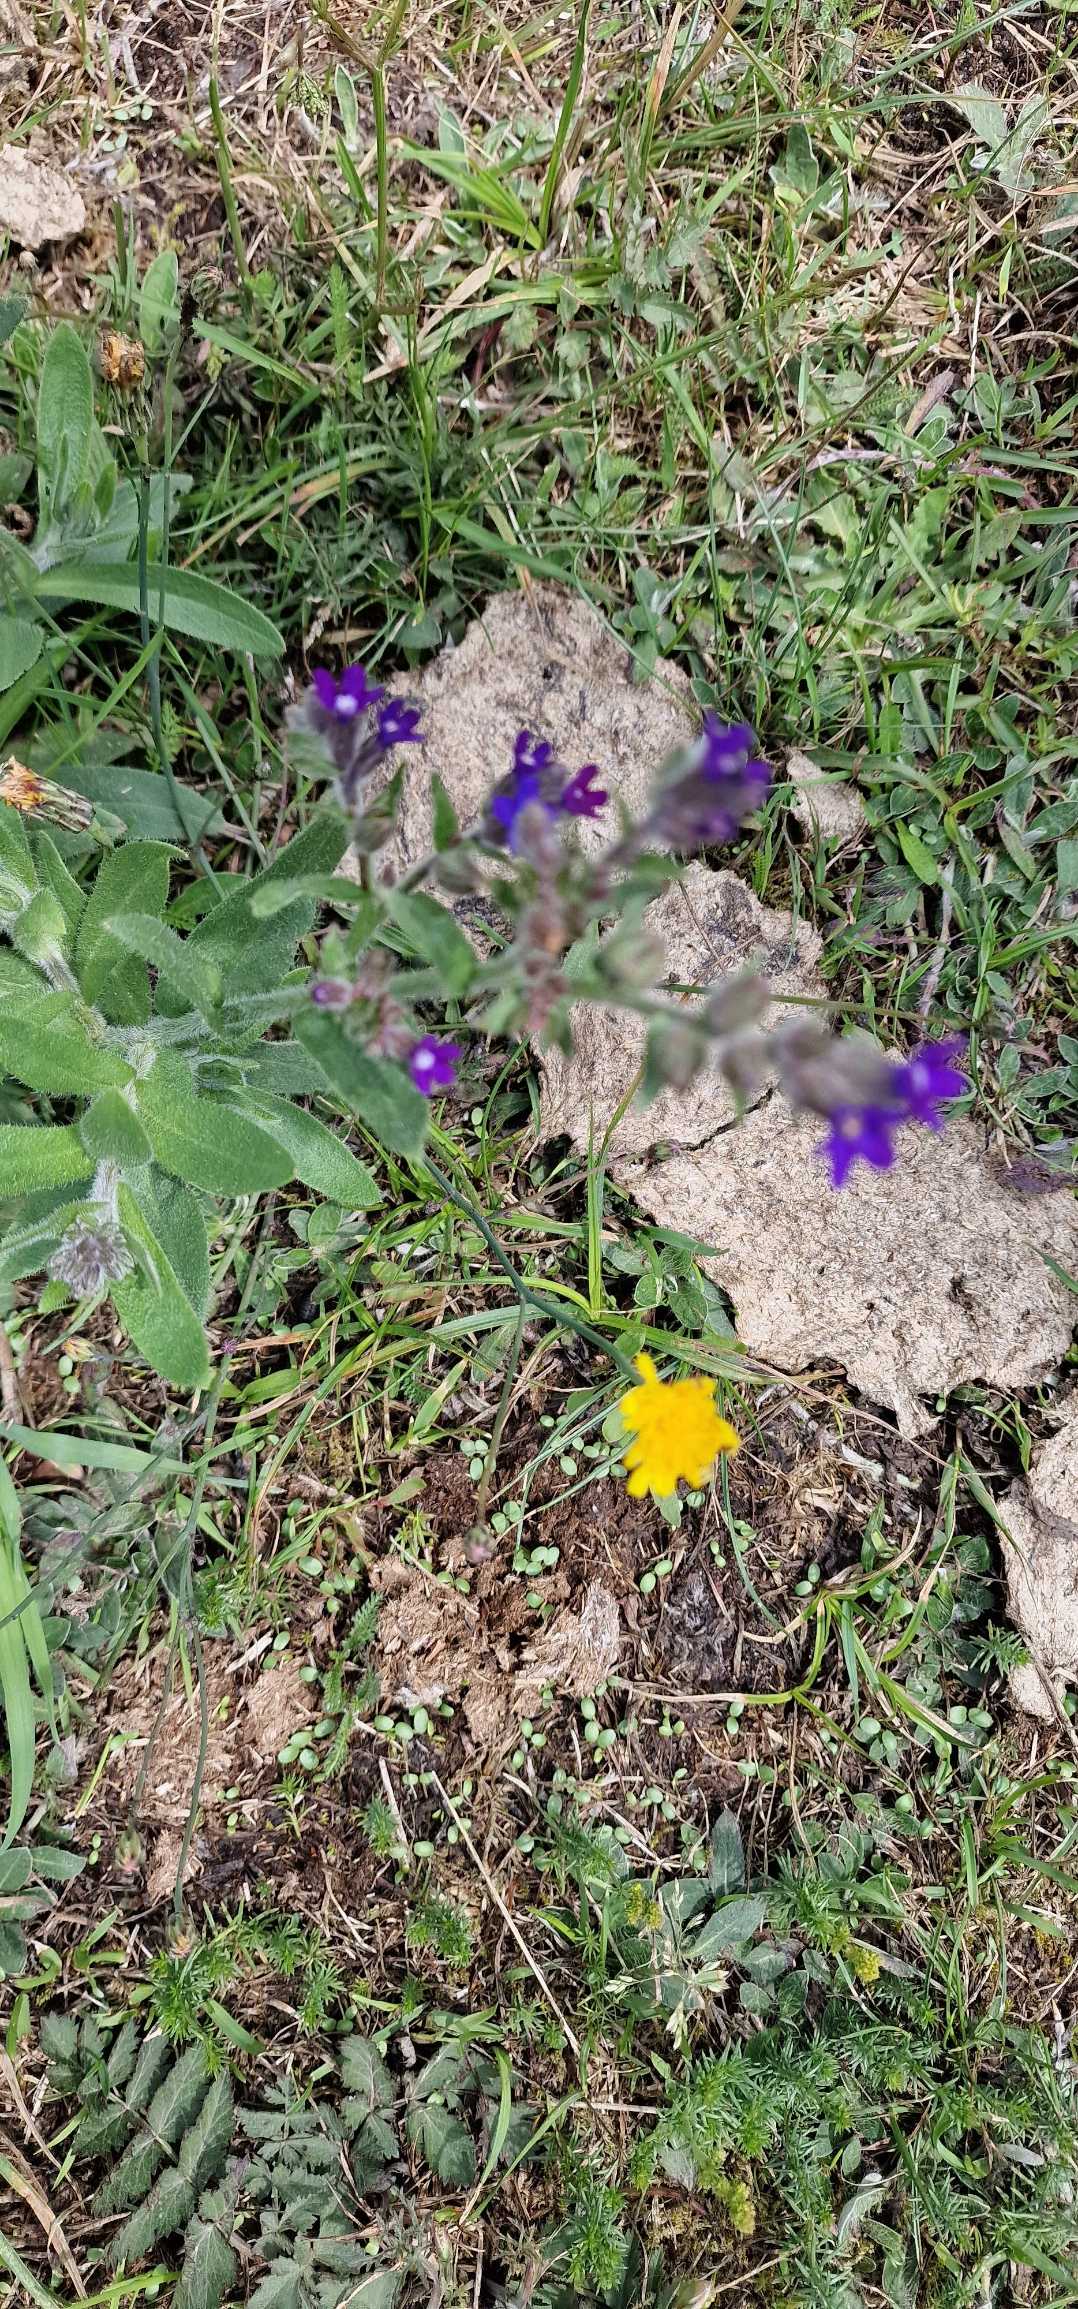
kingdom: Plantae
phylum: Tracheophyta
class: Magnoliopsida
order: Boraginales
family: Boraginaceae
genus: Anchusa
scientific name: Anchusa officinalis
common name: Læge-oksetunge
